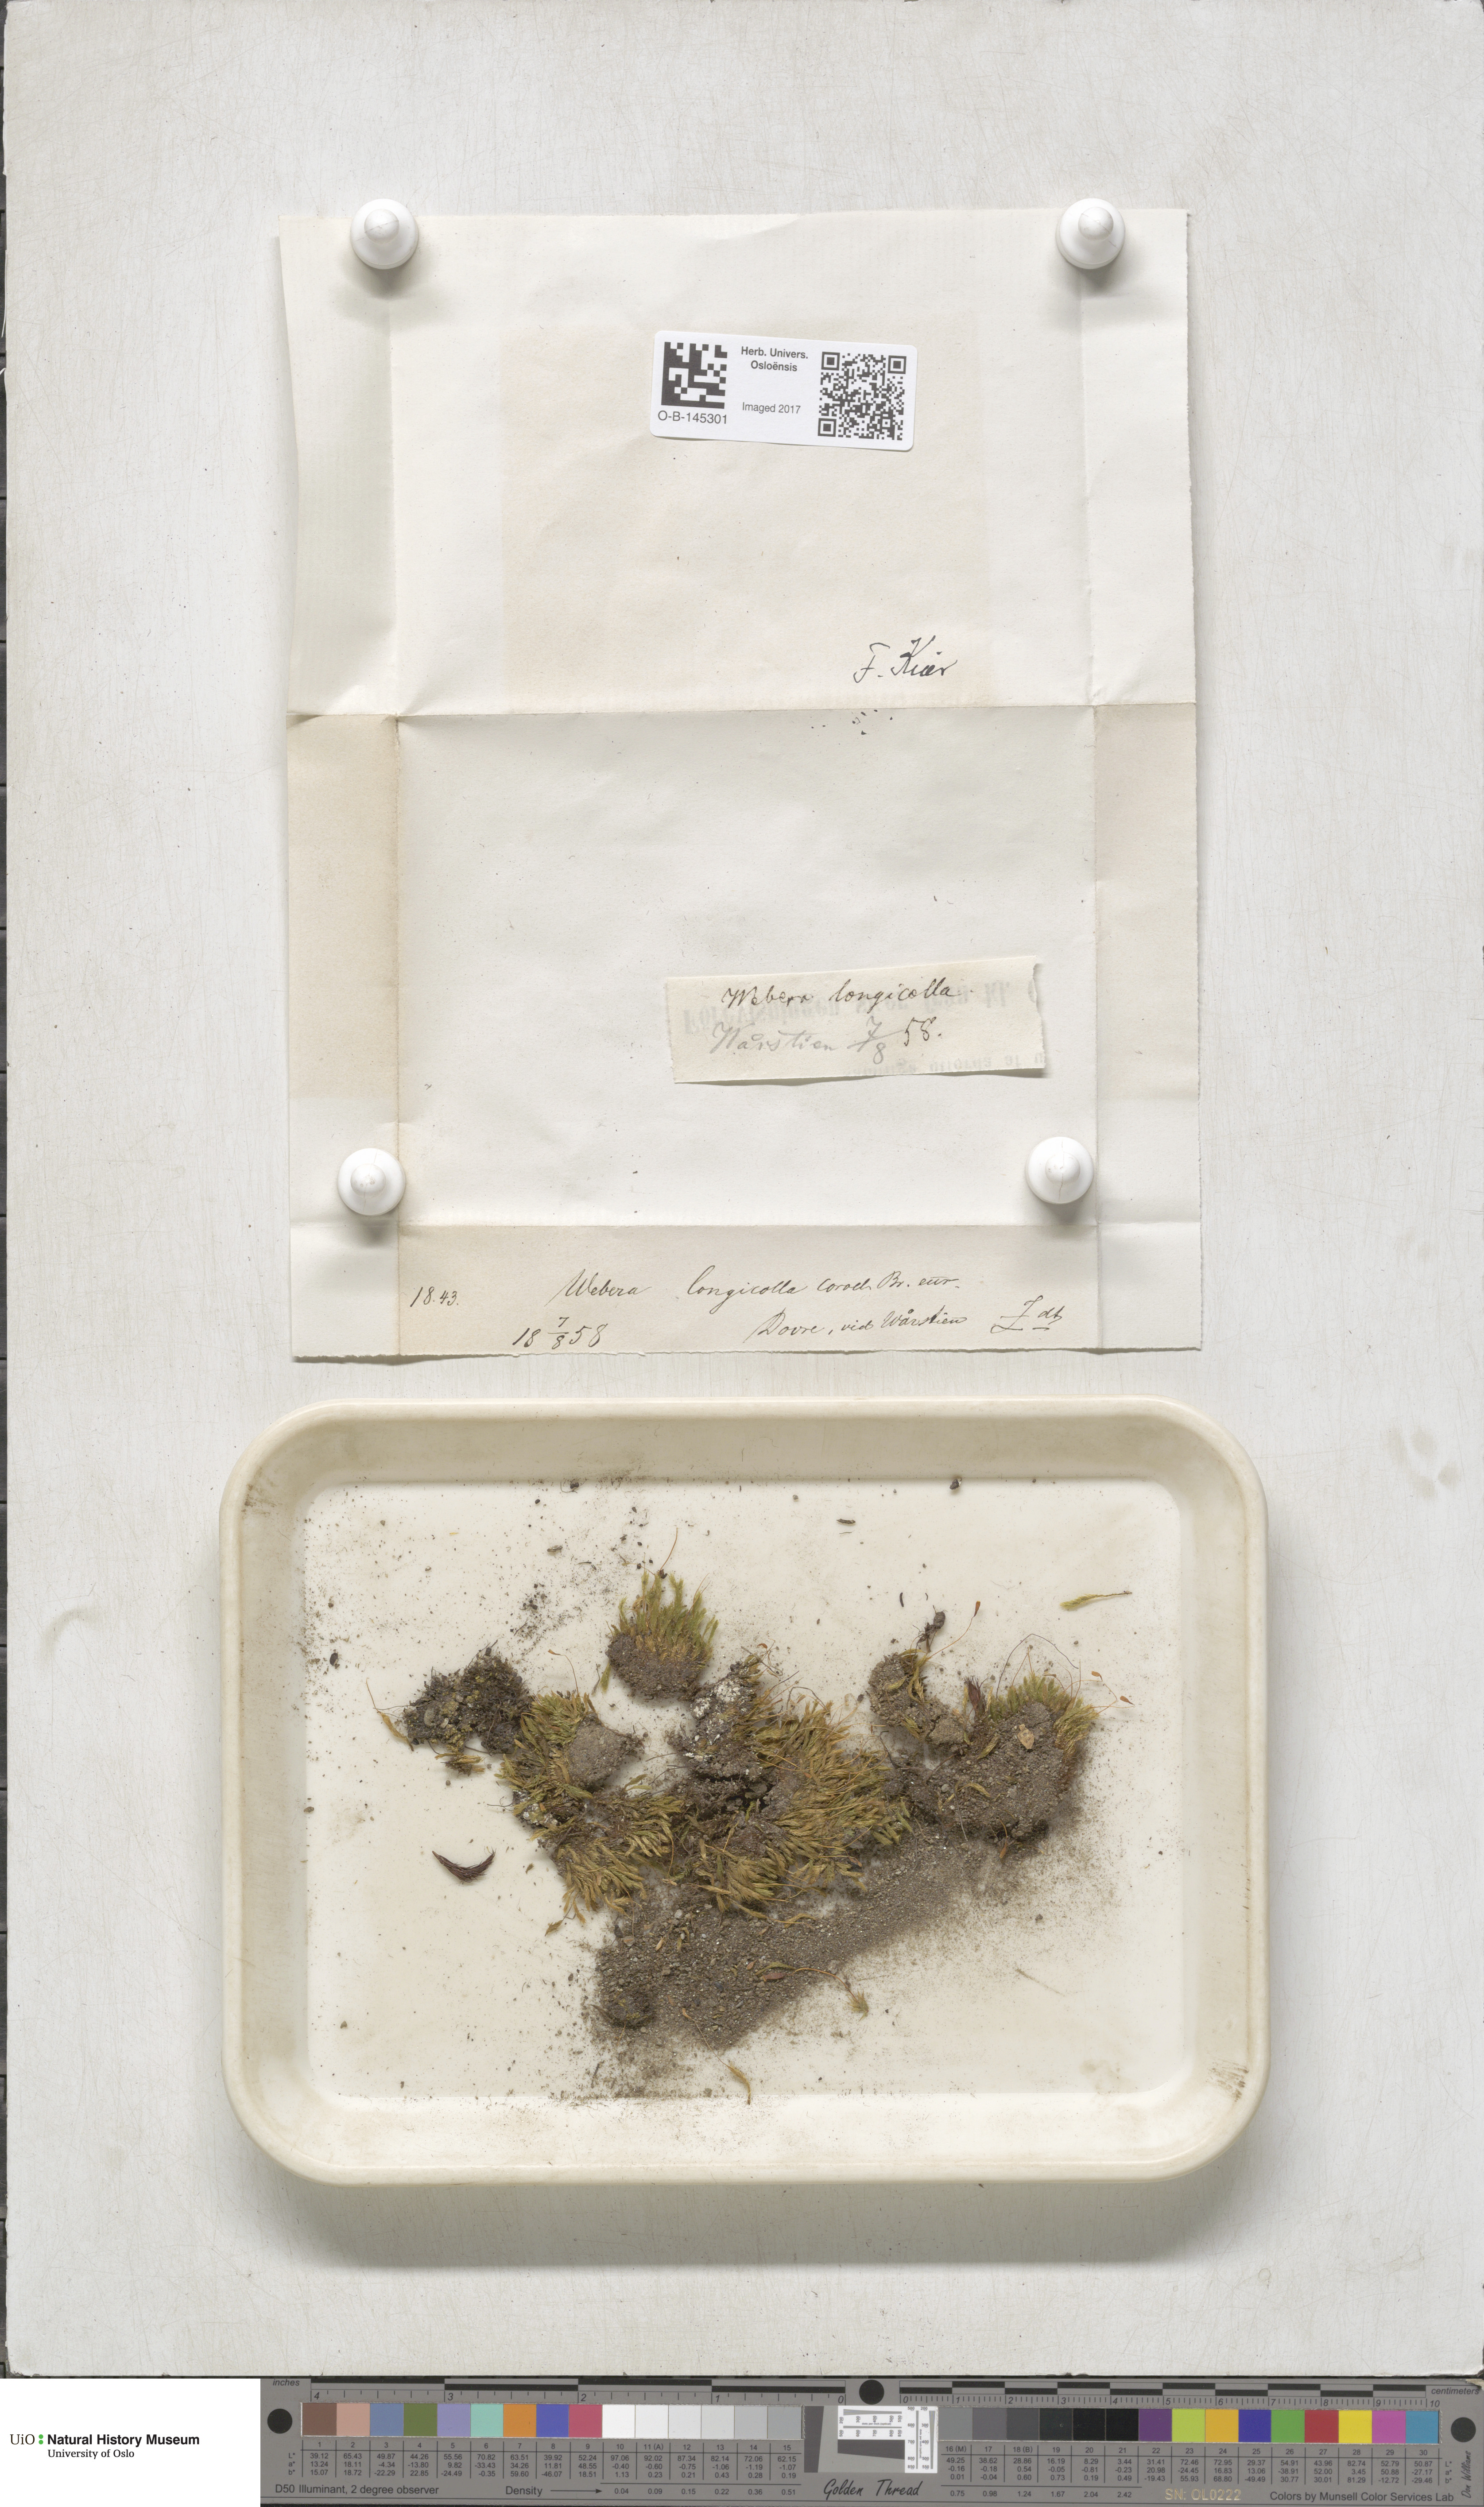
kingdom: Plantae
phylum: Bryophyta
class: Bryopsida
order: Bryales
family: Mniaceae
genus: Pohlia
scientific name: Pohlia longicolla
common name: Long-necked nodding moss
